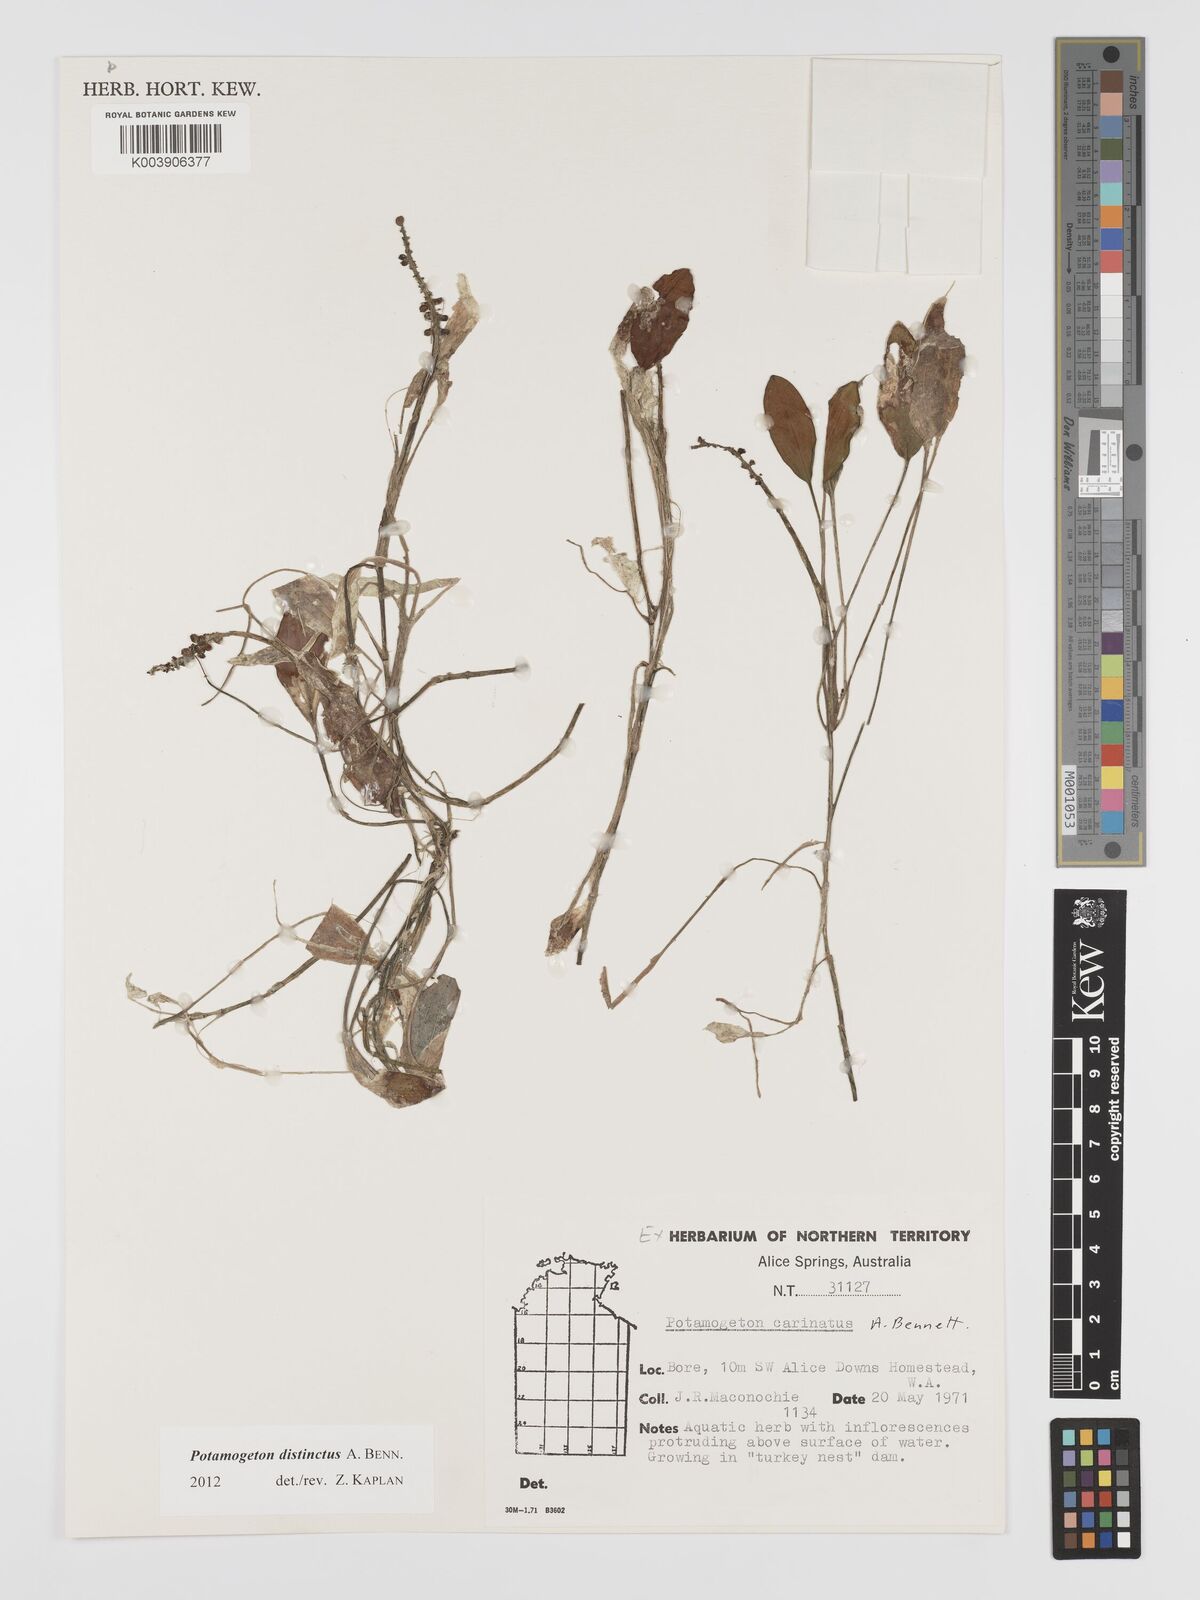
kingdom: Plantae
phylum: Tracheophyta
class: Liliopsida
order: Alismatales
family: Potamogetonaceae
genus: Potamogeton
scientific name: Potamogeton tricarinatus
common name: Pondweed
